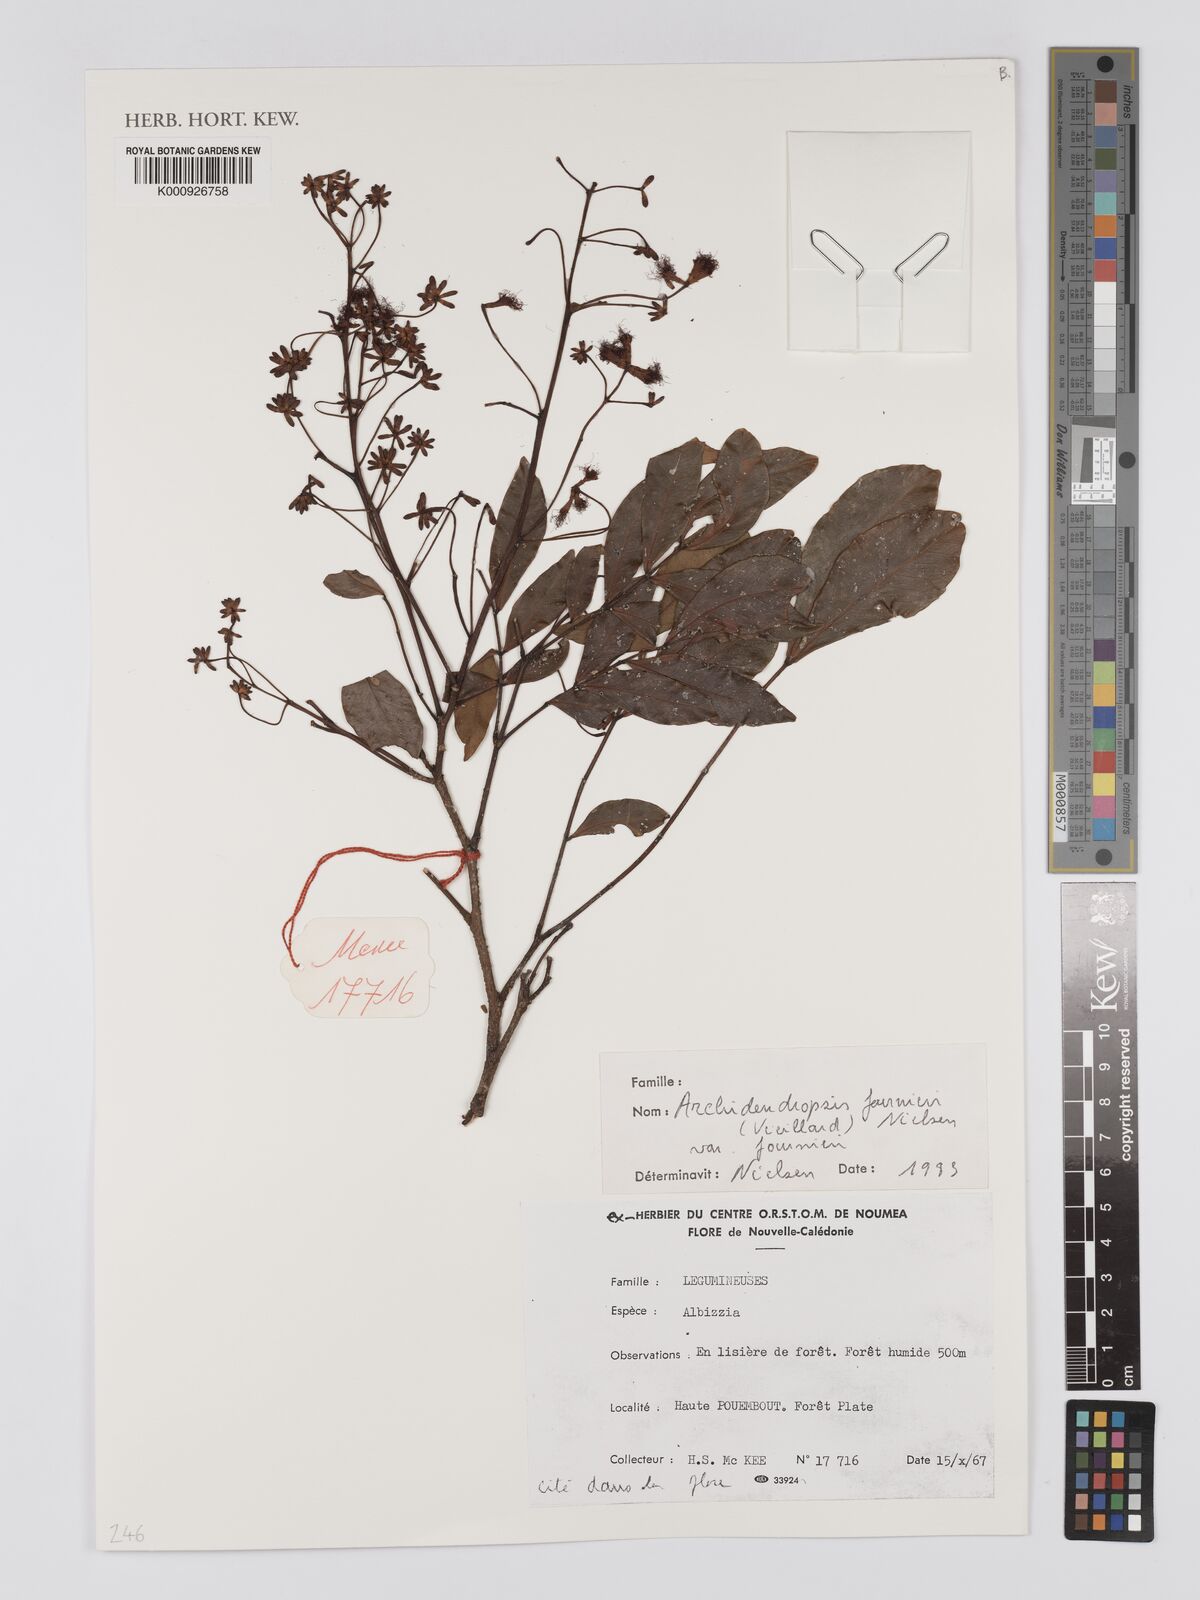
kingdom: Plantae
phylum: Tracheophyta
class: Magnoliopsida
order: Fabales
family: Fabaceae
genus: Archidendropsis
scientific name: Archidendropsis fournieri
